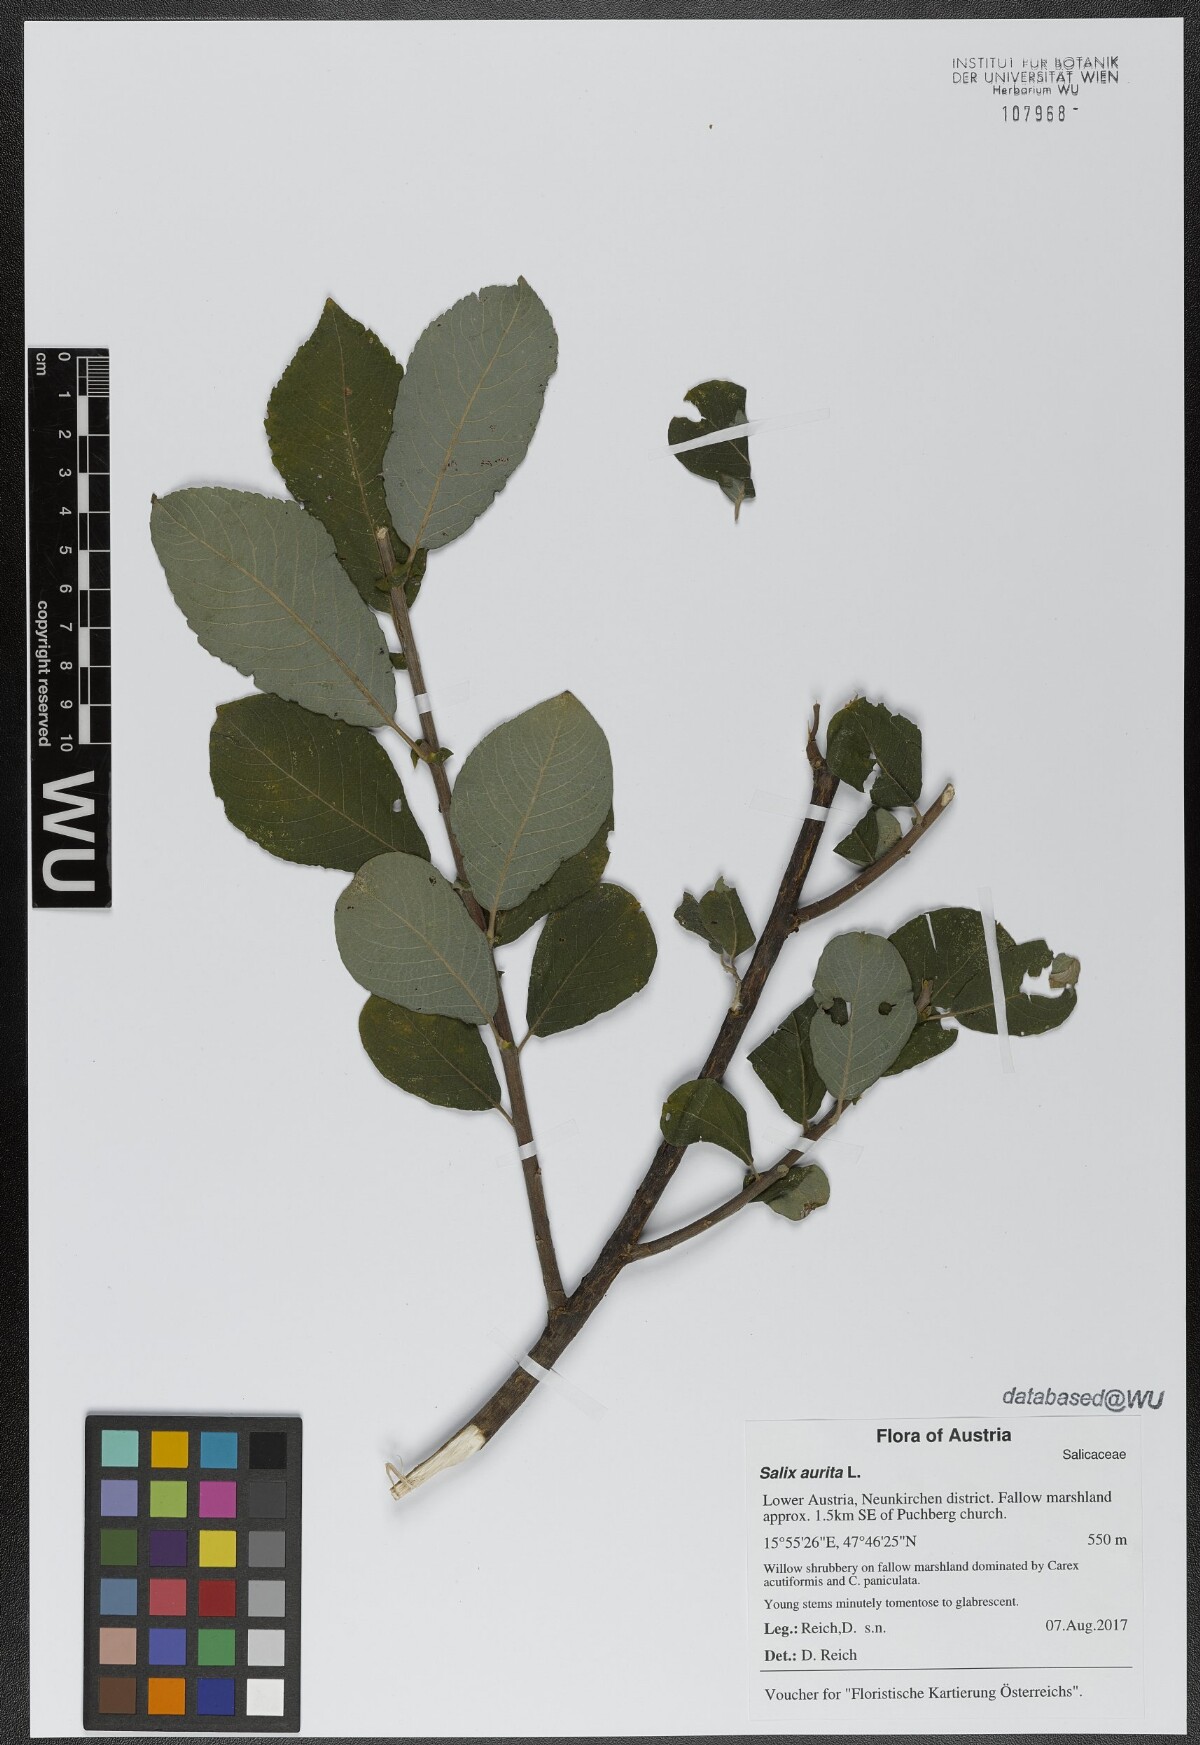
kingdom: Plantae
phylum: Tracheophyta
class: Magnoliopsida
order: Malpighiales
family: Salicaceae
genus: Salix
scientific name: Salix aurita
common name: Eared willow
